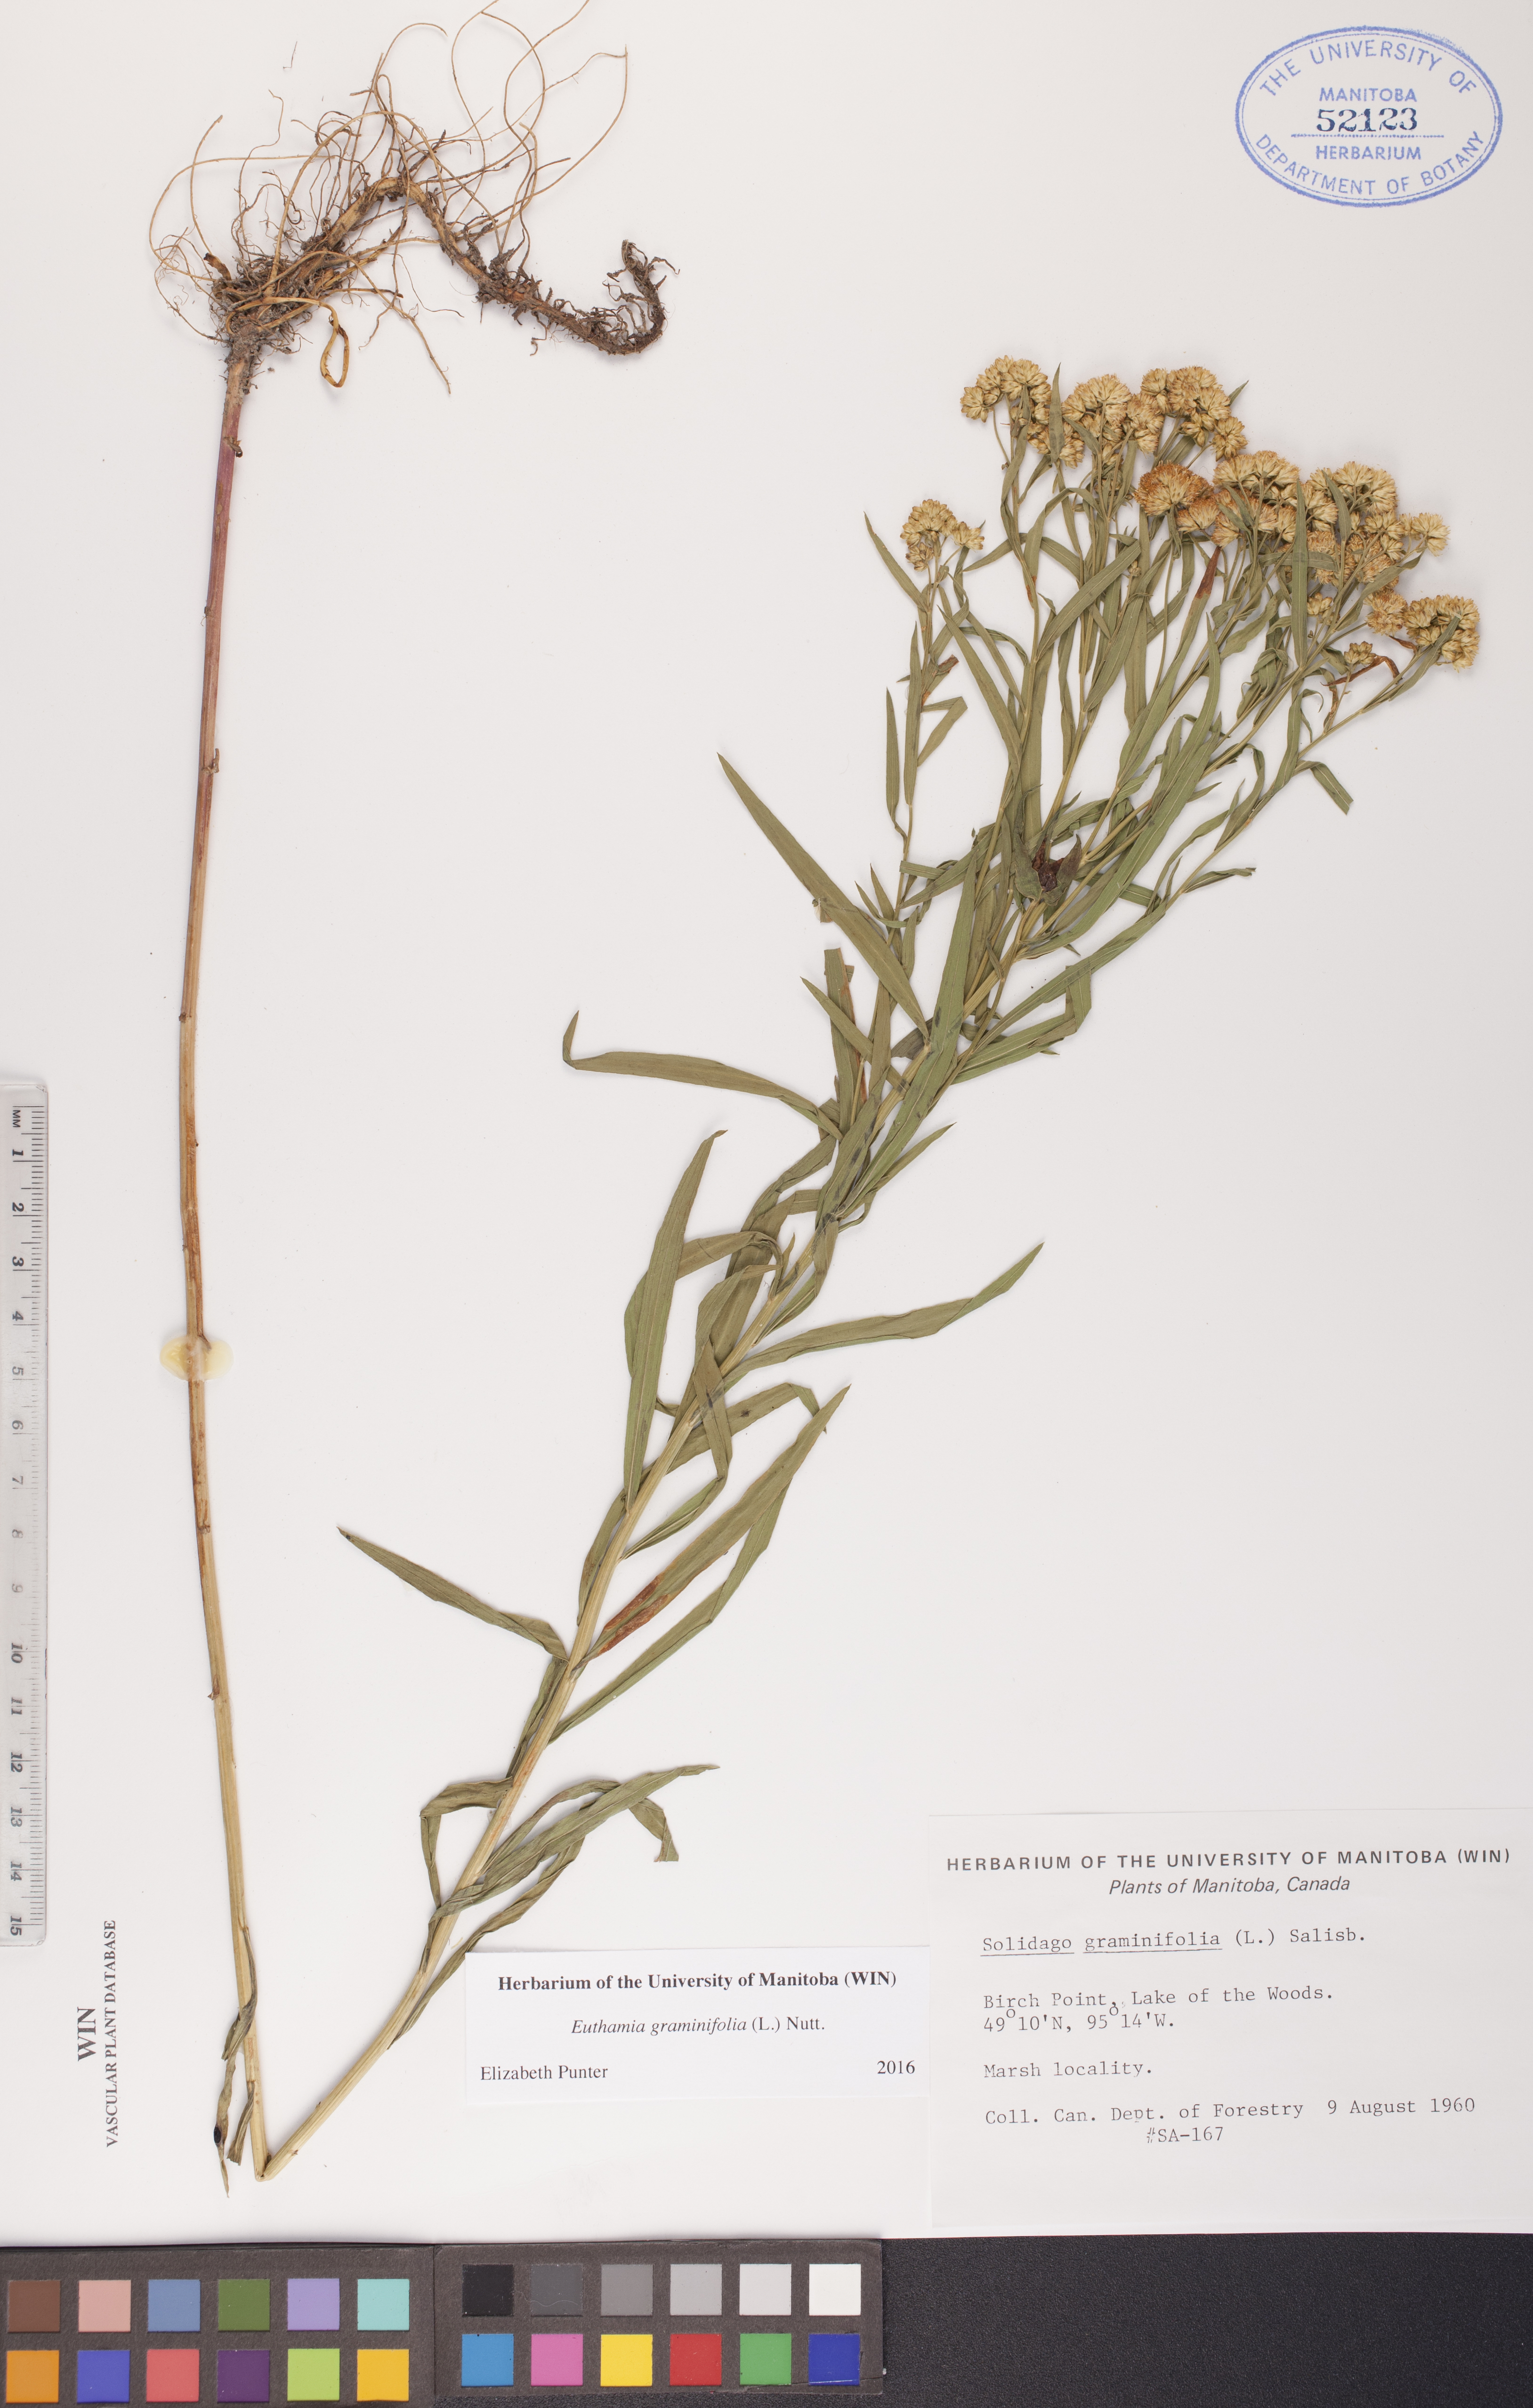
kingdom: Plantae
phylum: Tracheophyta
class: Magnoliopsida
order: Asterales
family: Asteraceae
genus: Euthamia
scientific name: Euthamia graminifolia
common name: Common goldentop
